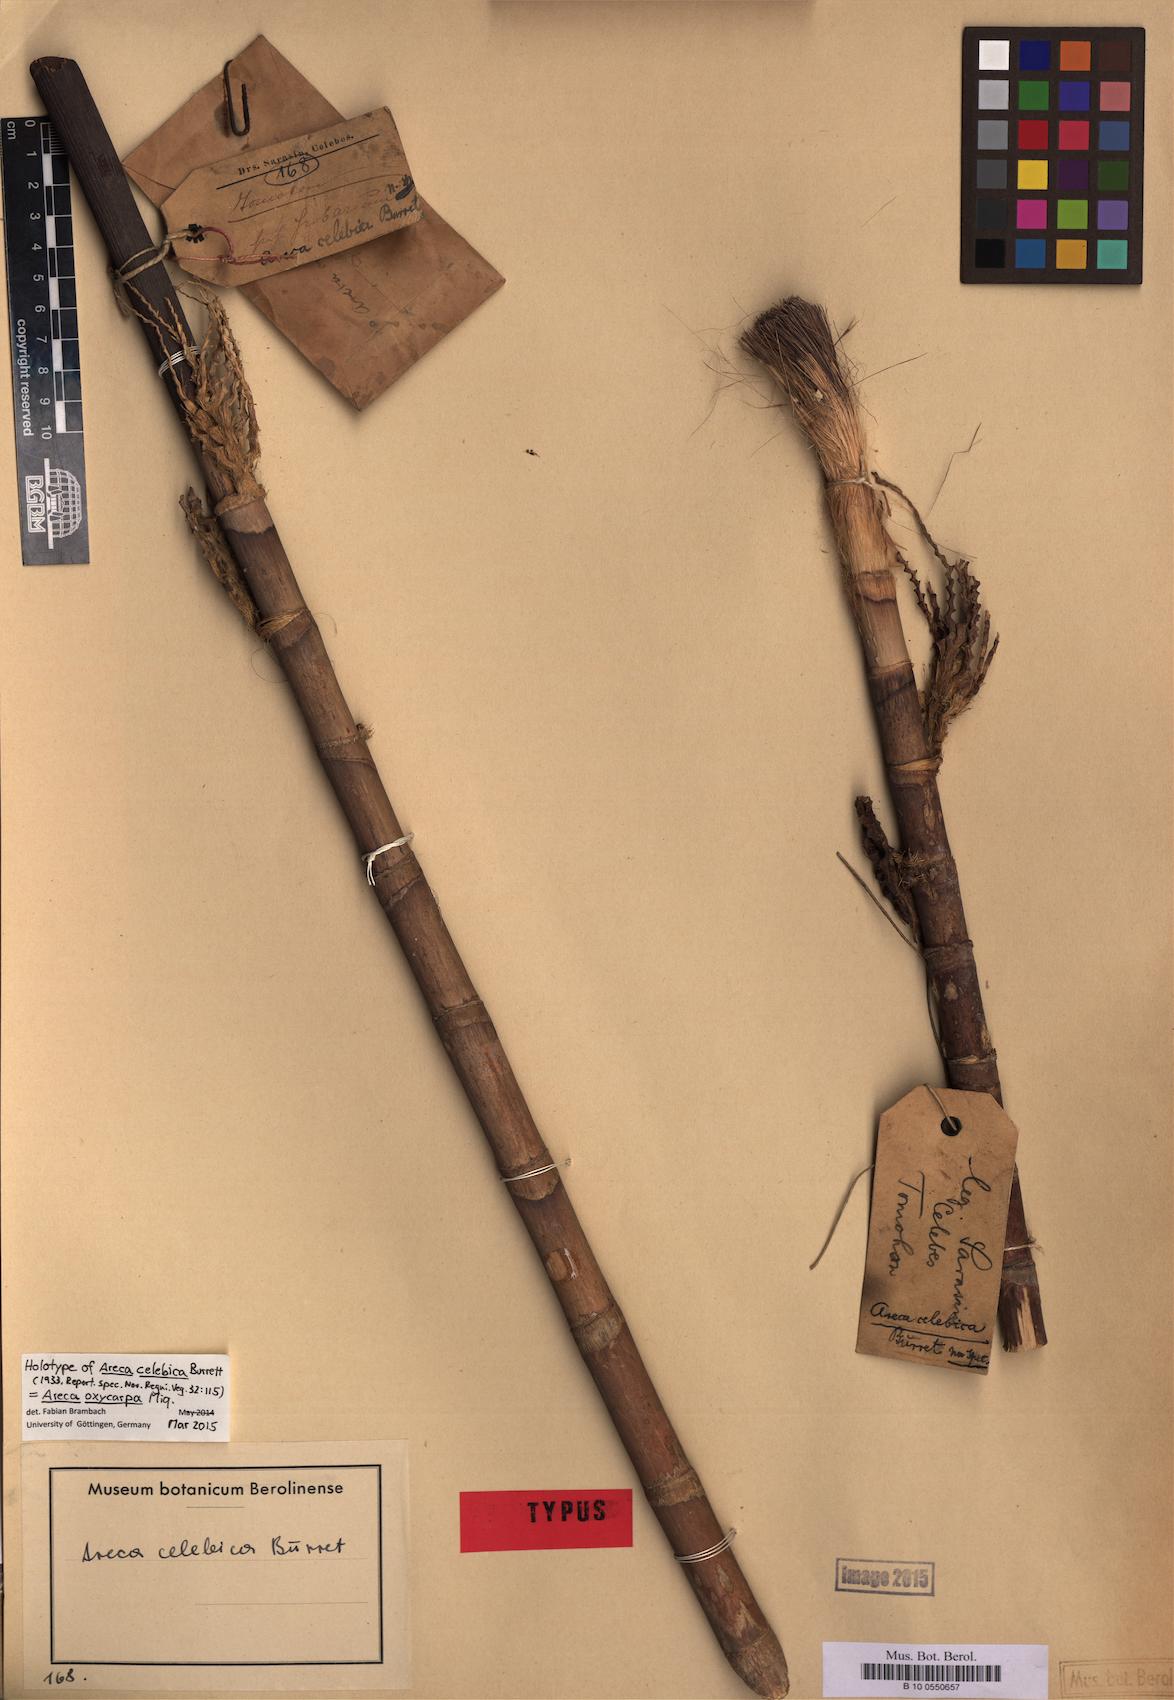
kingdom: Plantae
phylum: Tracheophyta
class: Liliopsida
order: Arecales
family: Arecaceae
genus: Areca
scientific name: Areca oxycarpa
